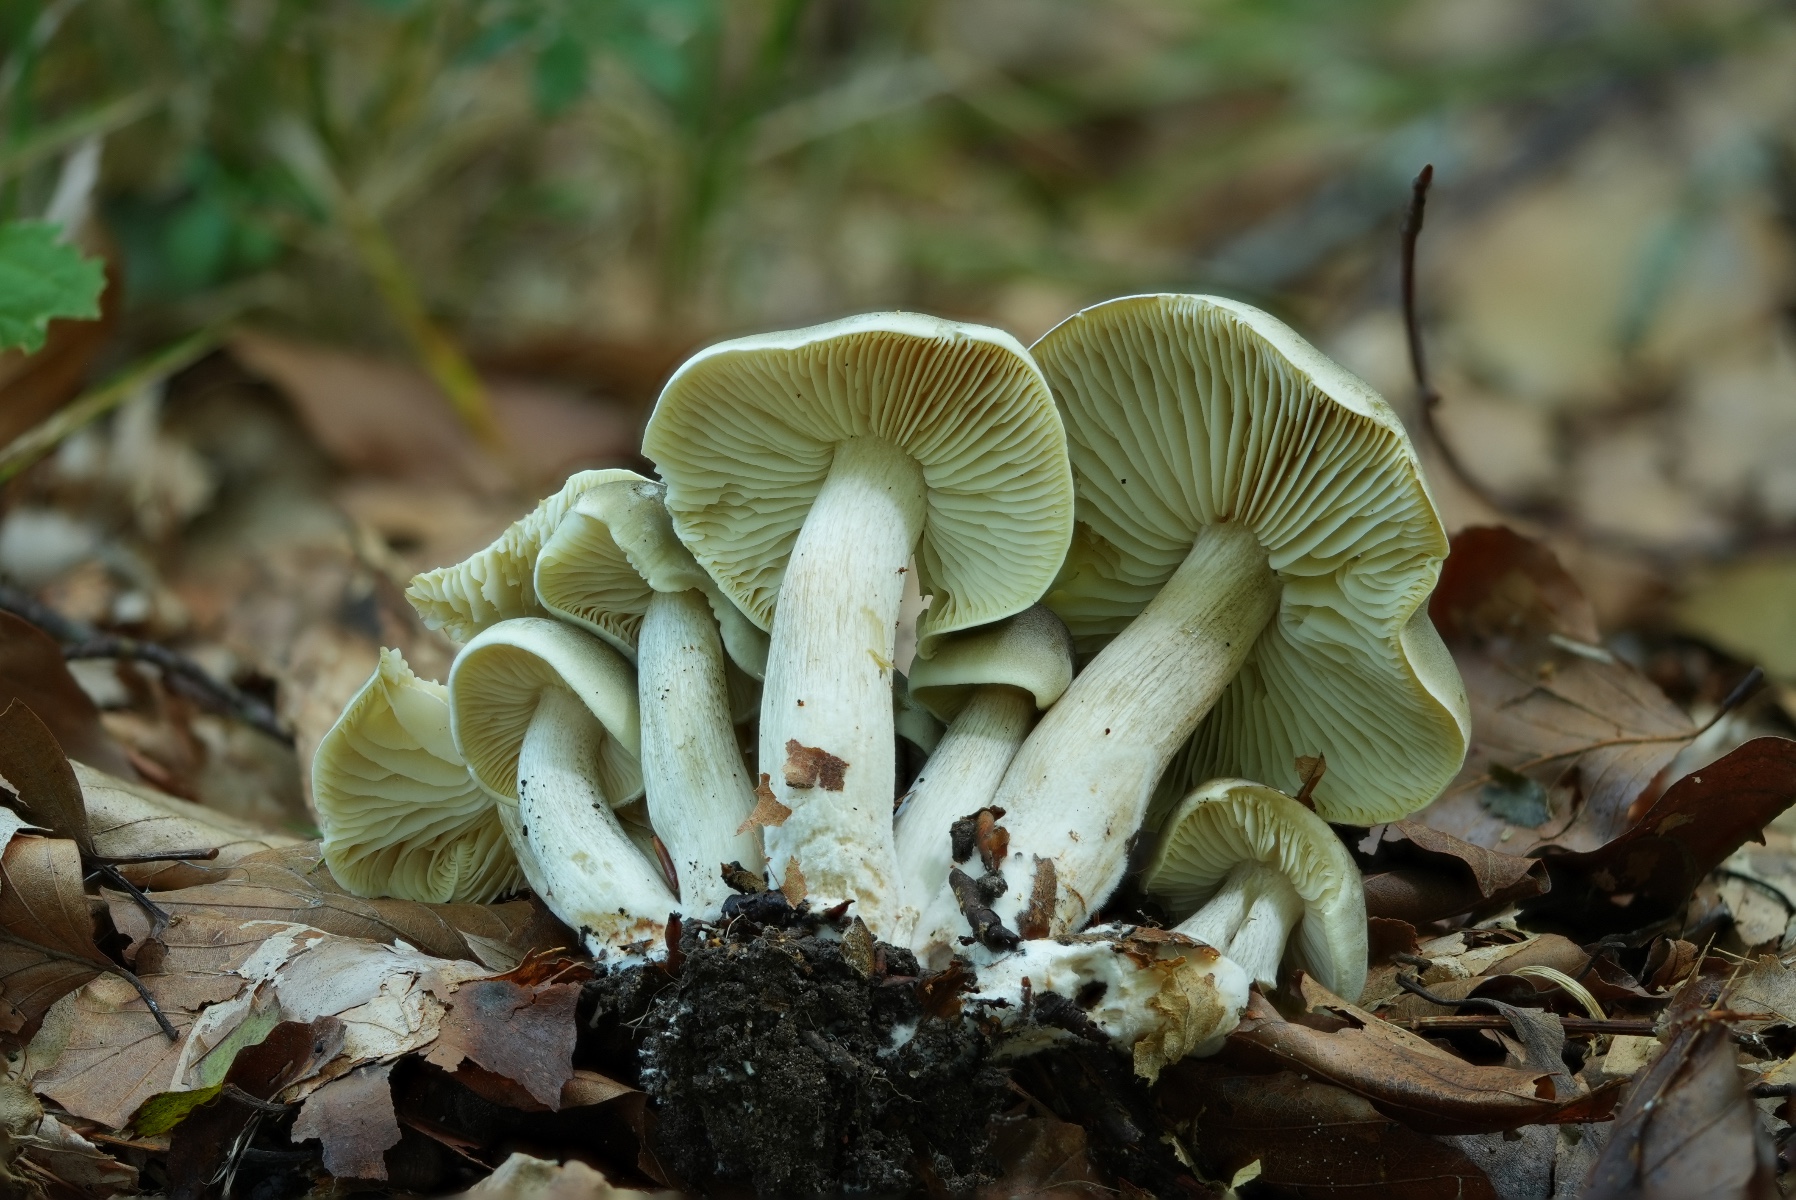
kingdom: Fungi
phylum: Basidiomycota
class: Agaricomycetes
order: Agaricales
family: Tricholomataceae
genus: Tricholoma
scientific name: Tricholoma saponaceum
